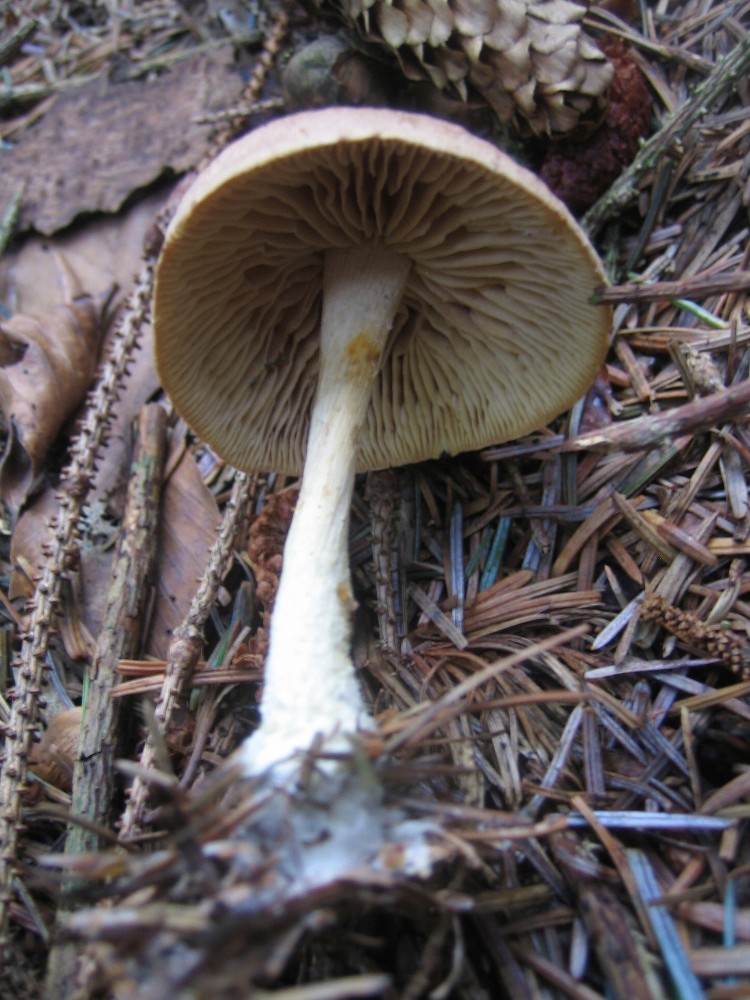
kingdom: Fungi
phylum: Basidiomycota
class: Agaricomycetes
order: Agaricales
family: Omphalotaceae
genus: Collybiopsis
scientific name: Collybiopsis peronata
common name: bestøvlet fladhat
